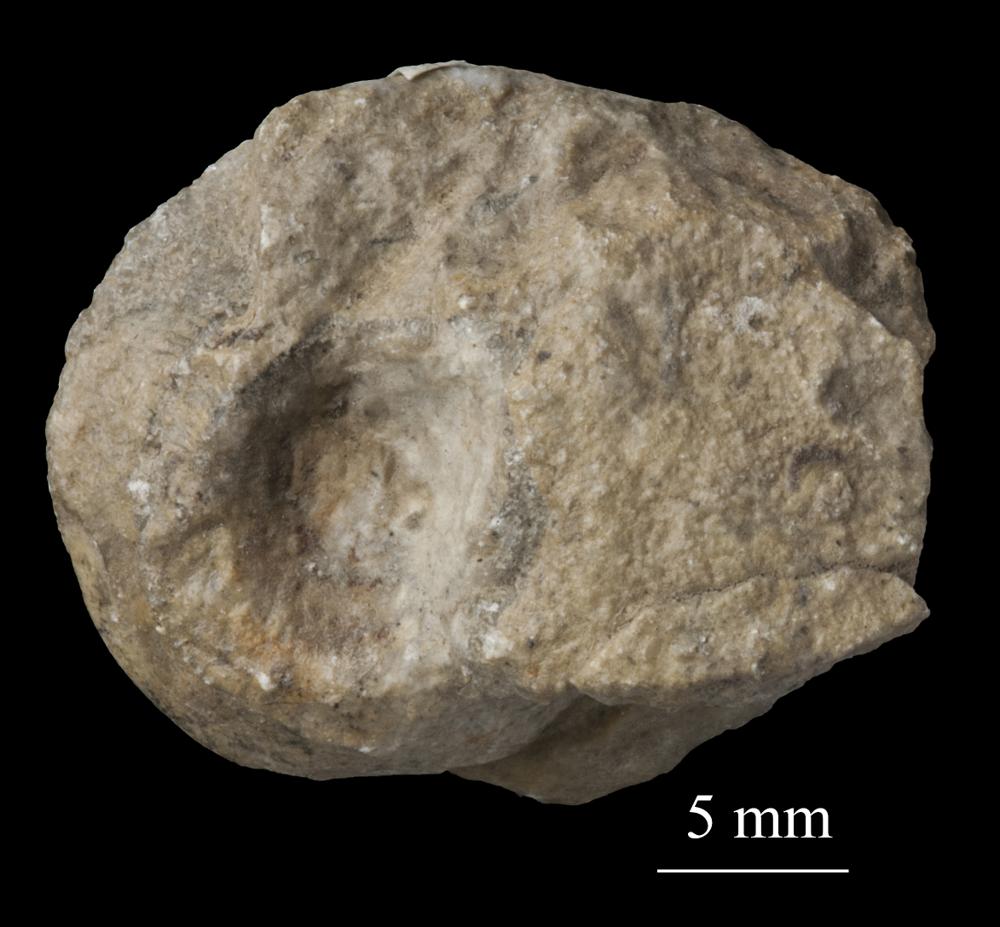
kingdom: Animalia
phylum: Mollusca
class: Gastropoda
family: Bellerophontidae
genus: Bellerophon
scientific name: Bellerophon
